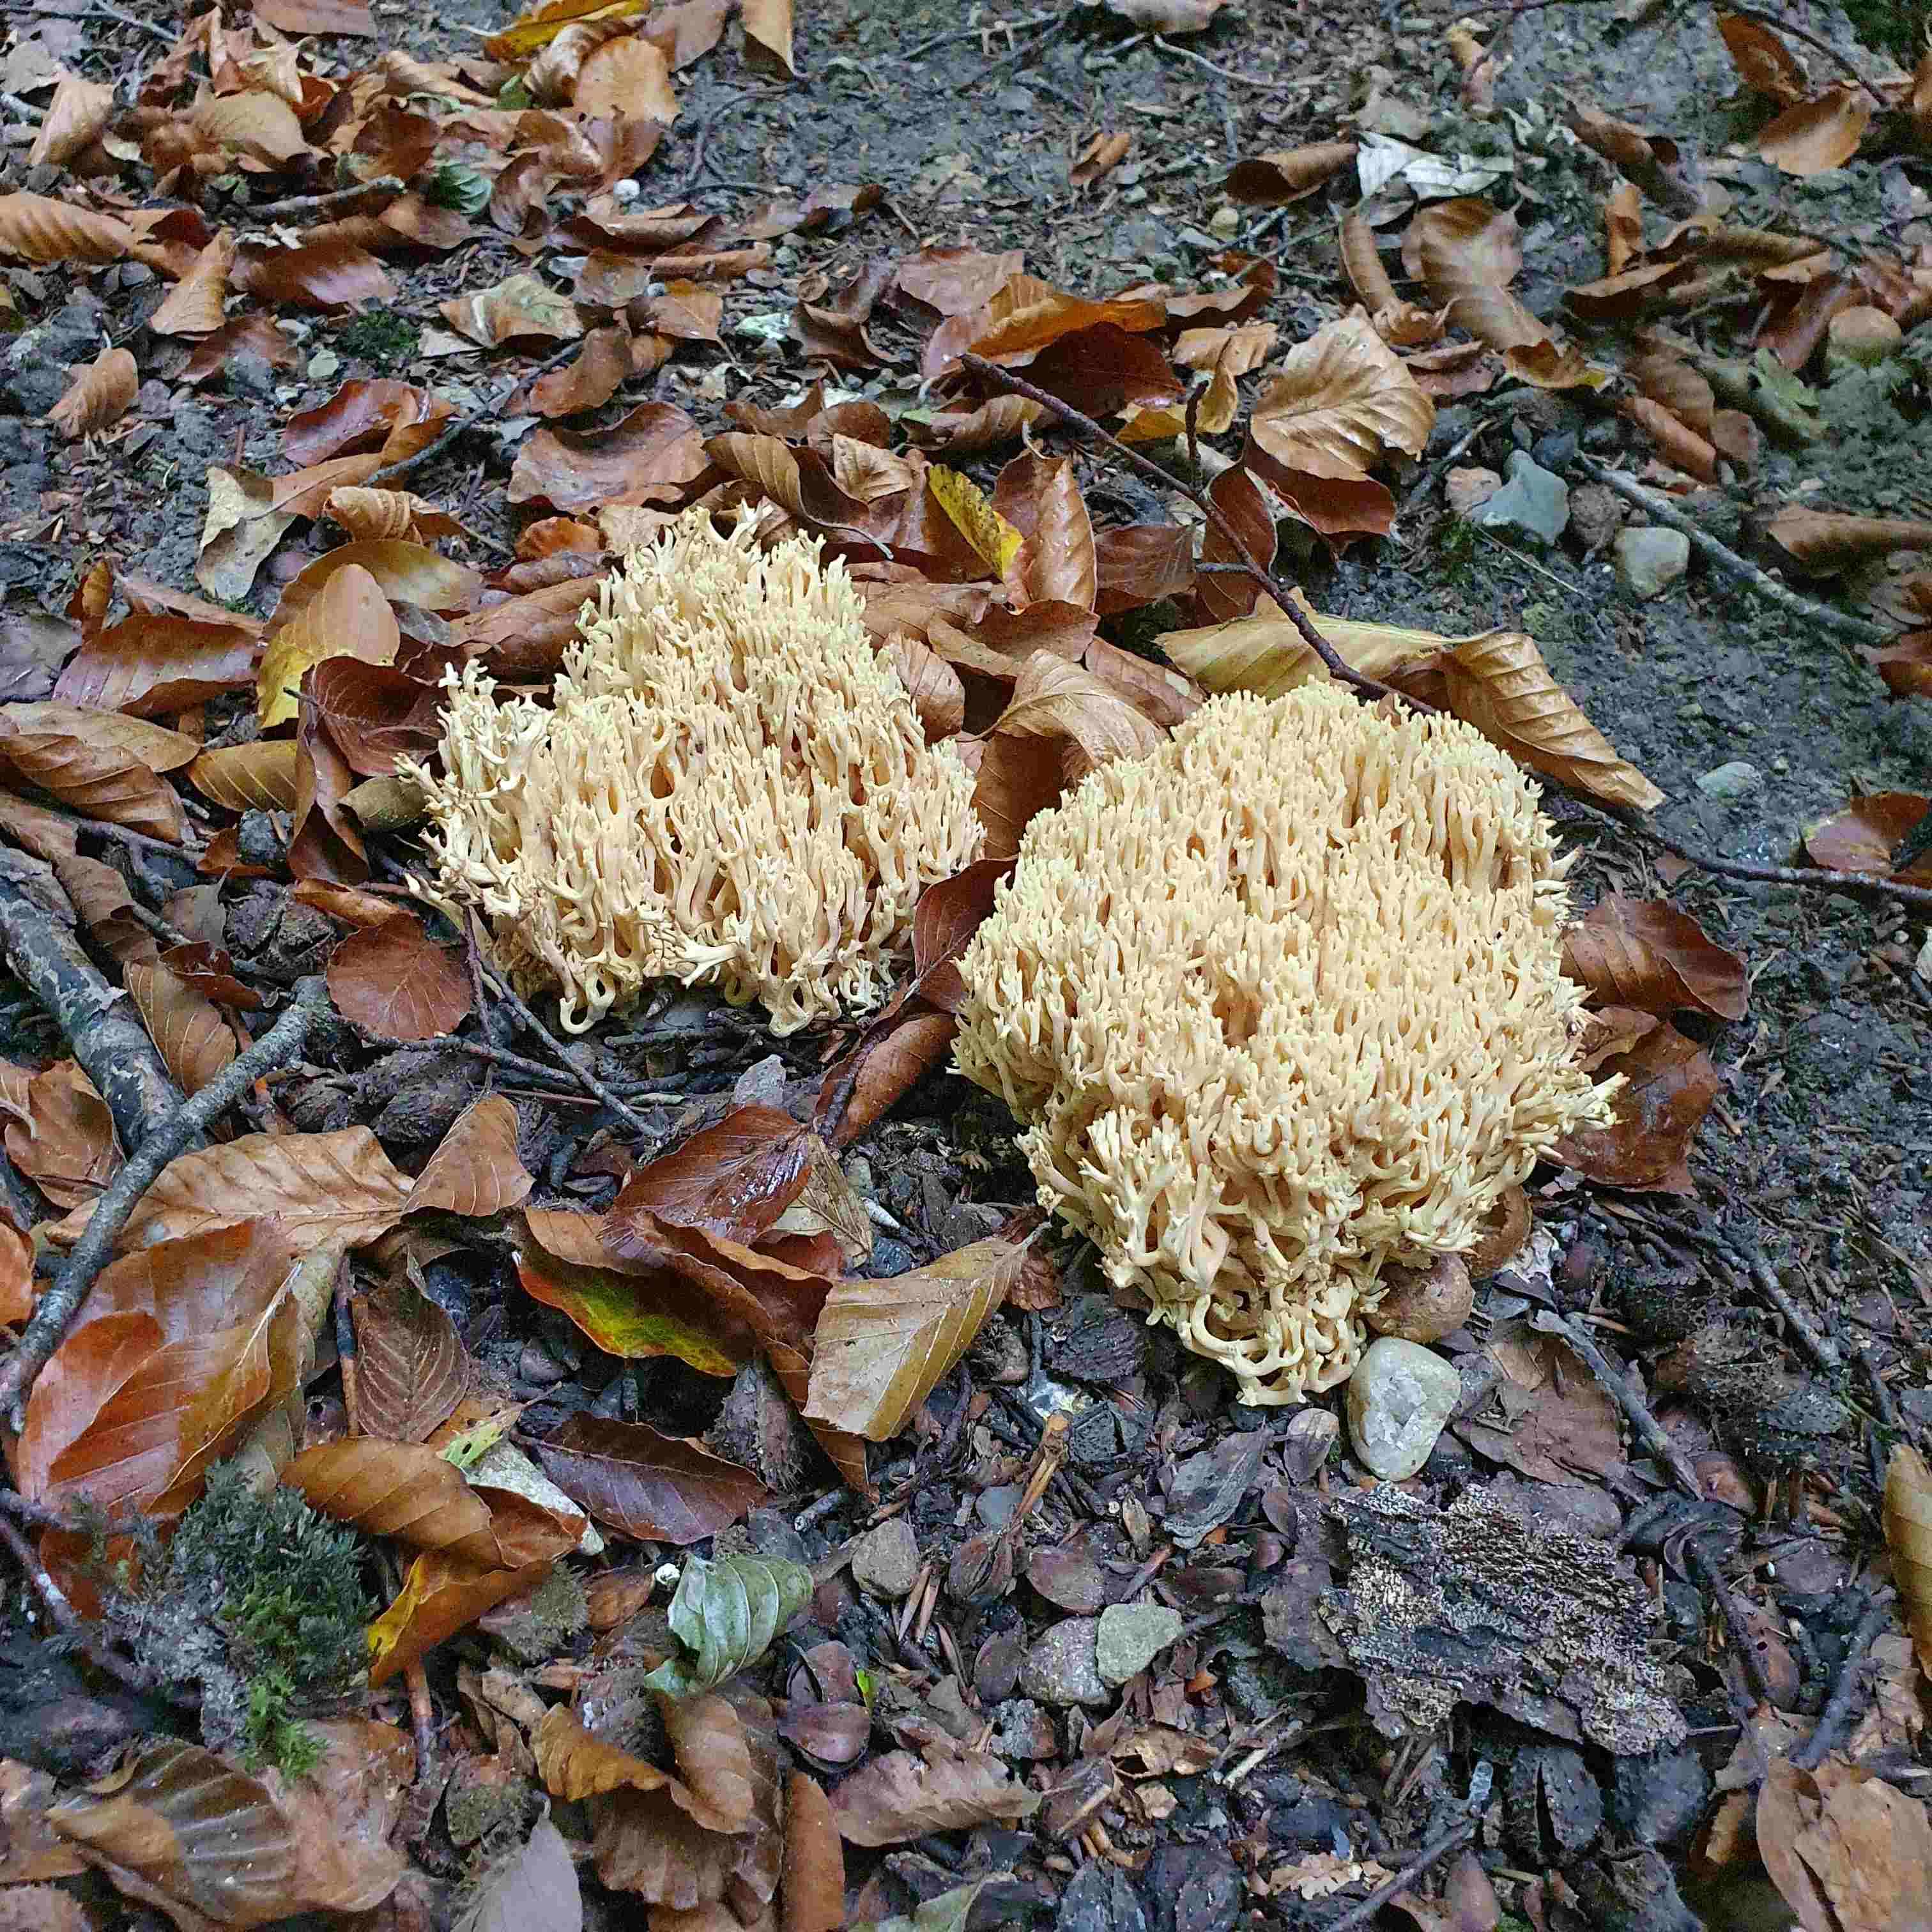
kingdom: Fungi
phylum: Basidiomycota
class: Agaricomycetes
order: Gomphales
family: Gomphaceae
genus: Ramaria
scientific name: Ramaria flavescens
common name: stor koralsvamp
